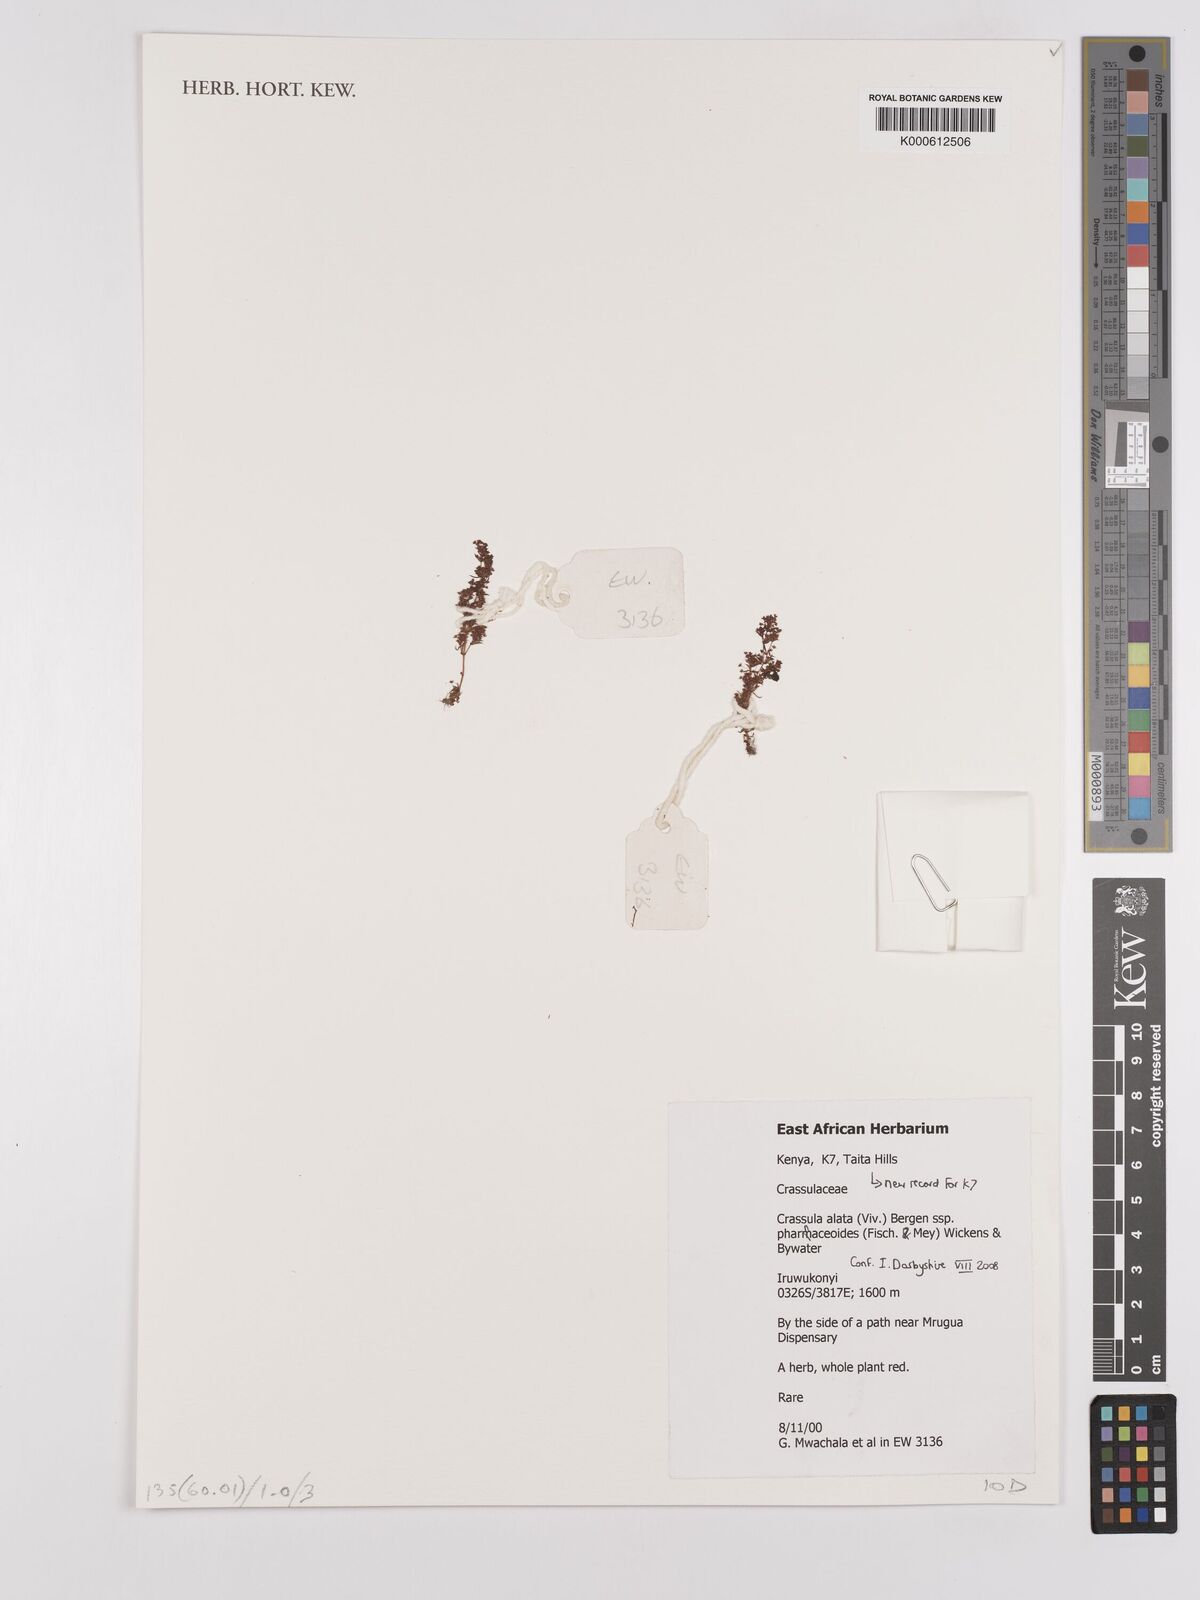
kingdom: Plantae
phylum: Tracheophyta
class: Magnoliopsida
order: Saxifragales
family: Crassulaceae
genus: Crassula
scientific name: Crassula alata
